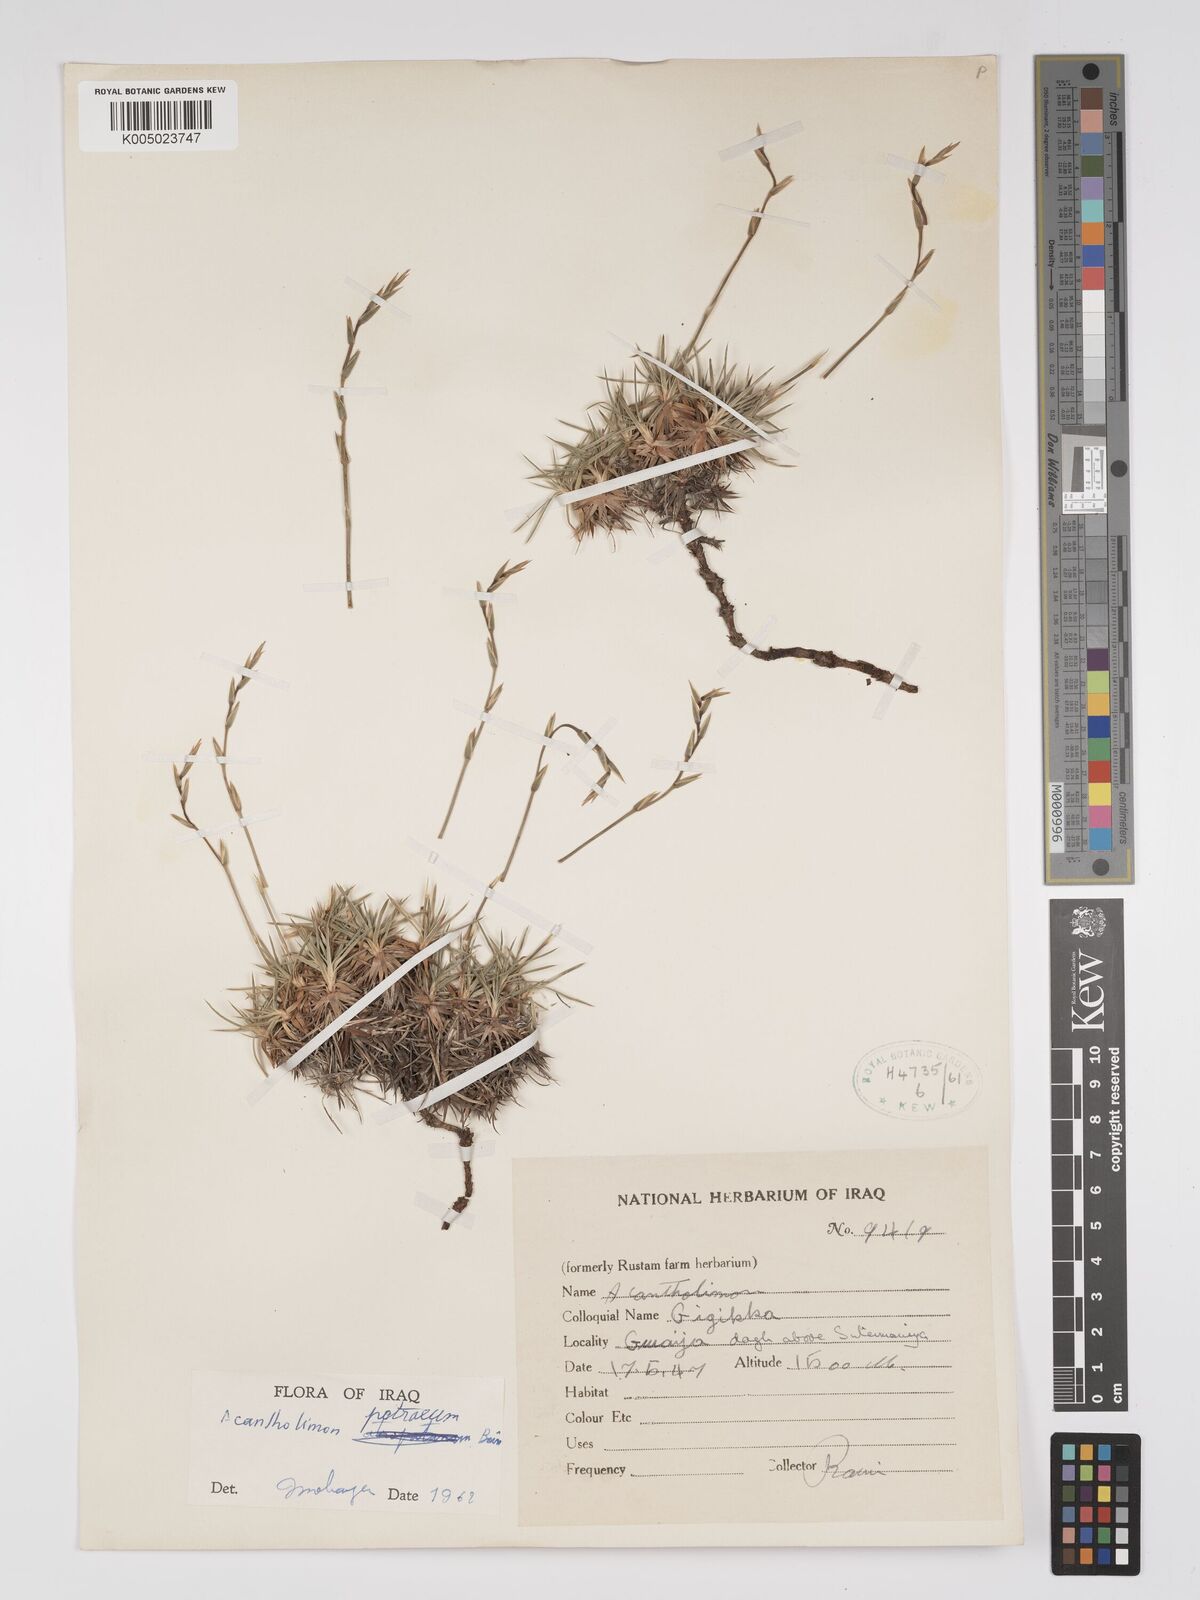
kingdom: Plantae
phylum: Tracheophyta
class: Magnoliopsida
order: Caryophyllales
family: Plumbaginaceae
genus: Acantholimon
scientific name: Acantholimon petraeum
